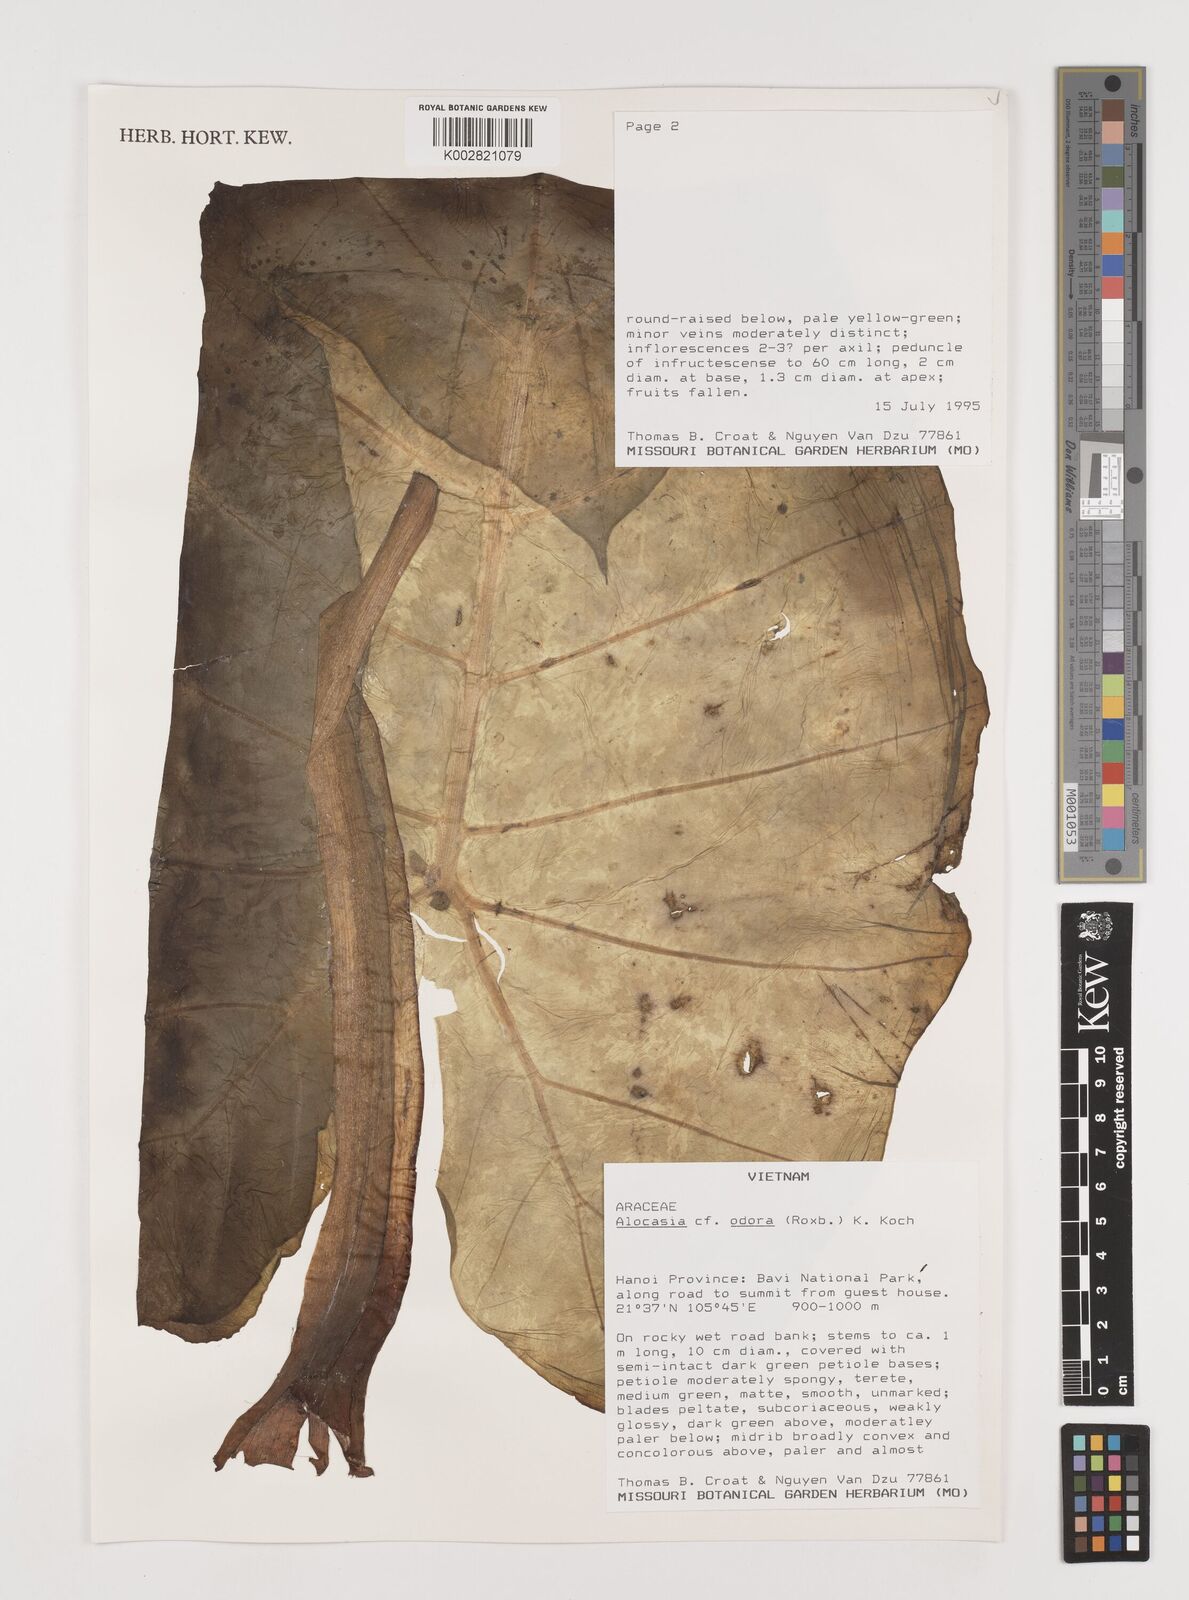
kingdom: Plantae
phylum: Tracheophyta
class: Liliopsida
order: Alismatales
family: Araceae
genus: Alocasia
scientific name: Alocasia navicularis
